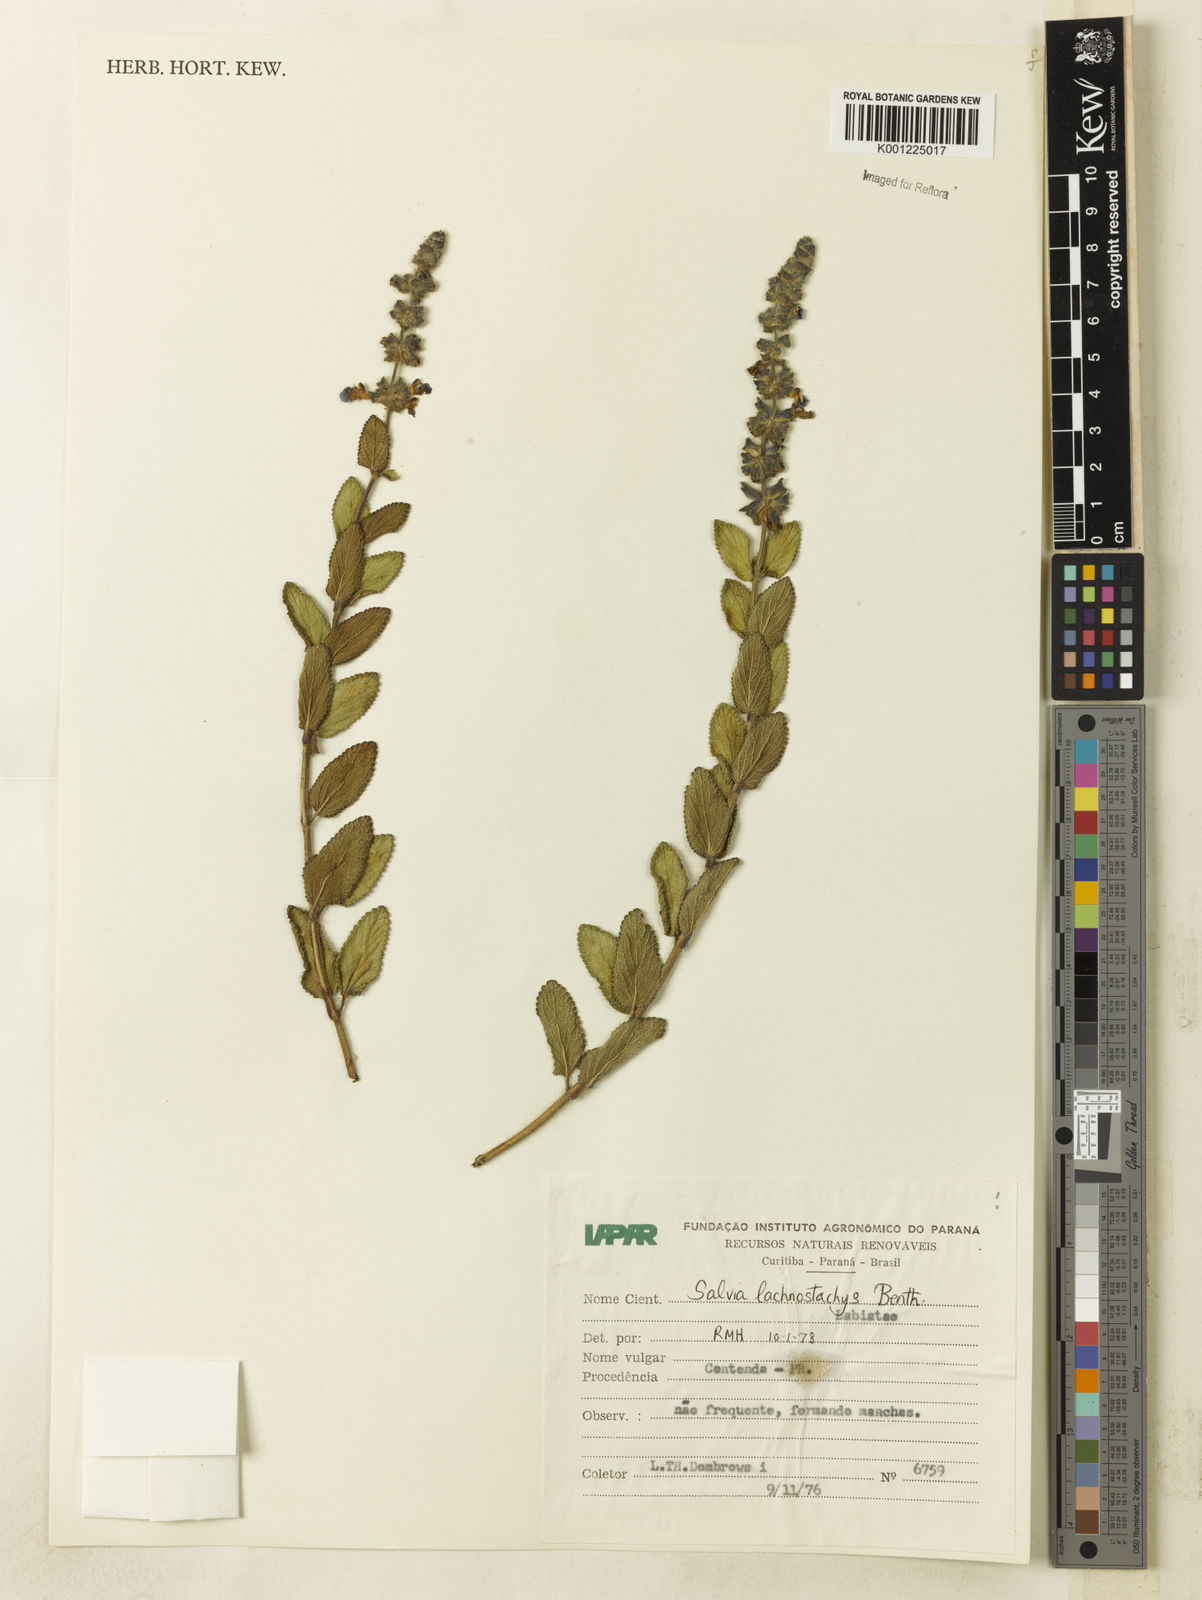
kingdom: Plantae
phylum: Tracheophyta
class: Magnoliopsida
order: Lamiales
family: Lamiaceae
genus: Salvia
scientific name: Salvia lachnostachys
